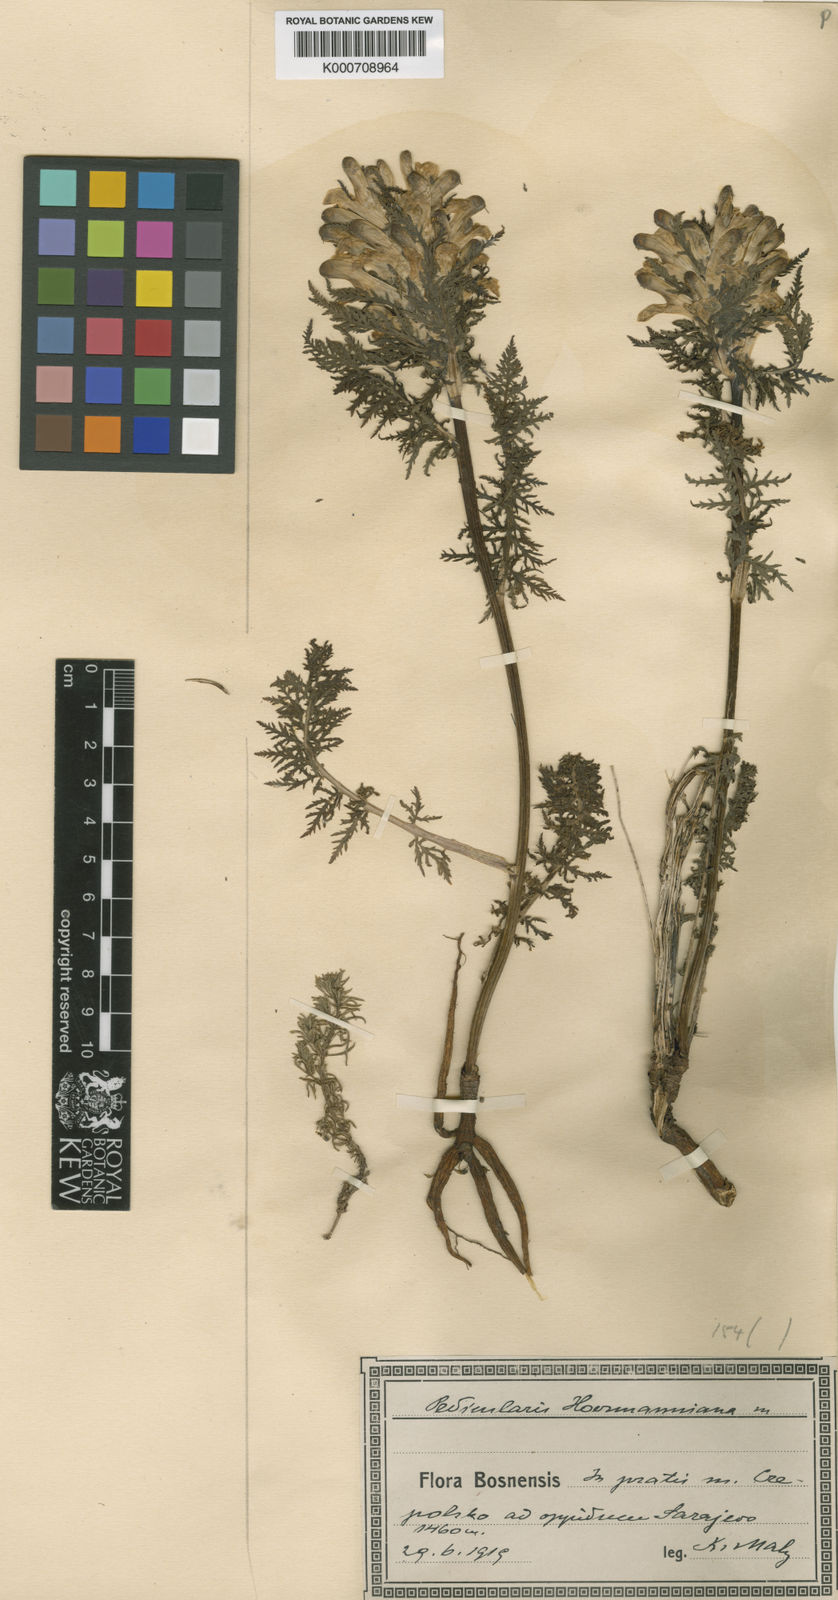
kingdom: Plantae
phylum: Tracheophyta
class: Magnoliopsida
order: Lamiales
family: Orobanchaceae
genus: Pedicularis
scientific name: Pedicularis
